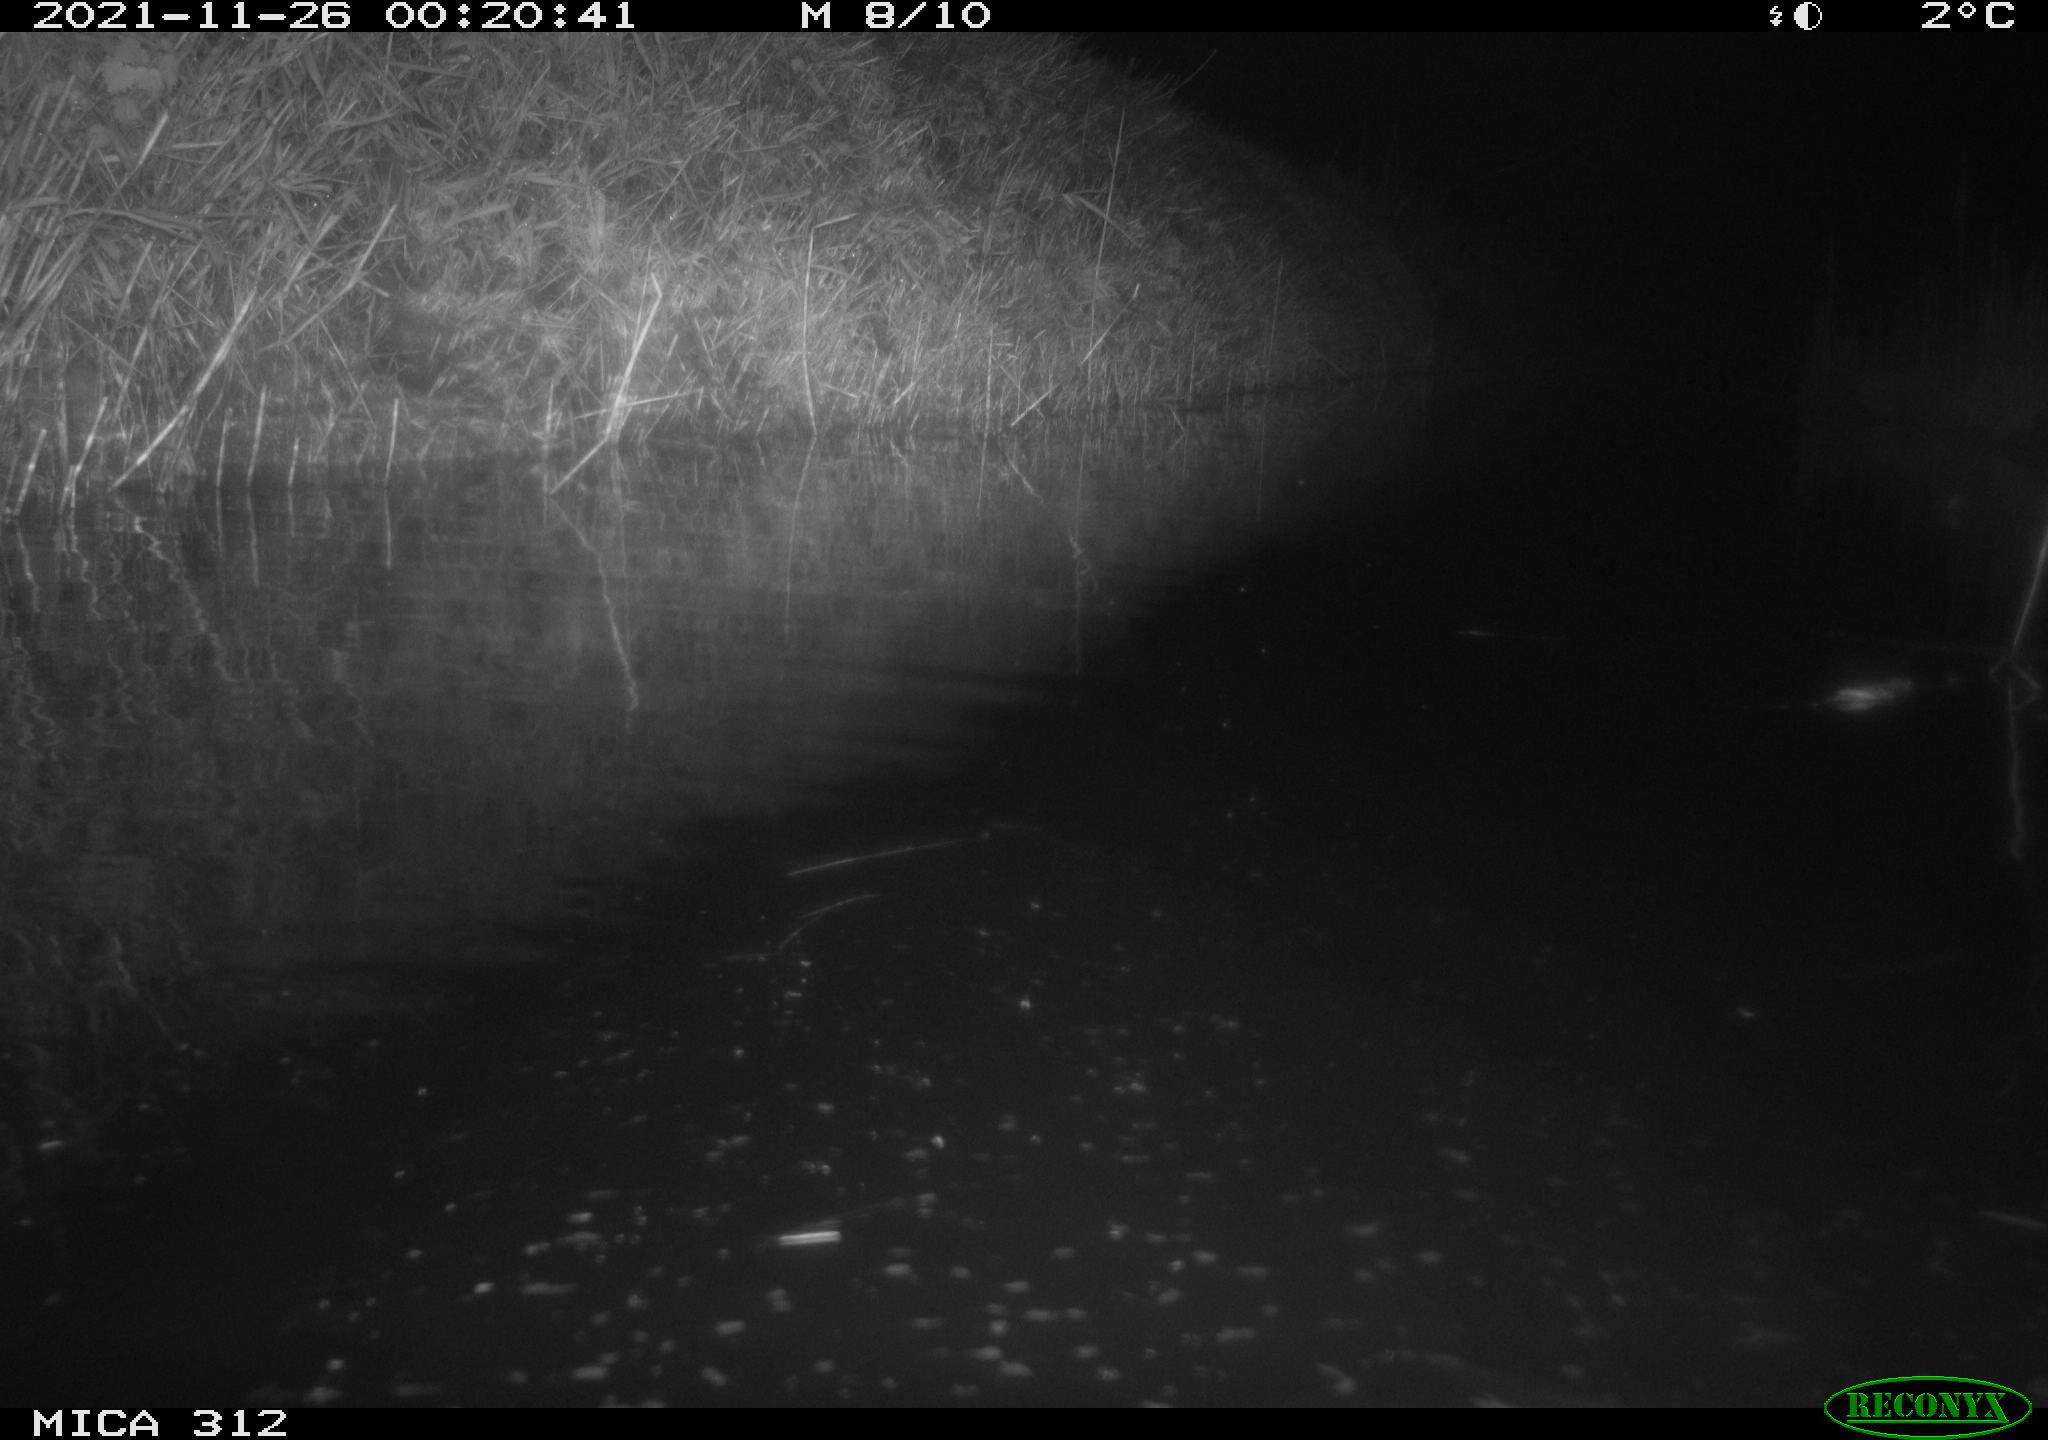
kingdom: Animalia
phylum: Chordata
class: Mammalia
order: Rodentia
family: Muridae
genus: Rattus
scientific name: Rattus norvegicus
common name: Brown rat
